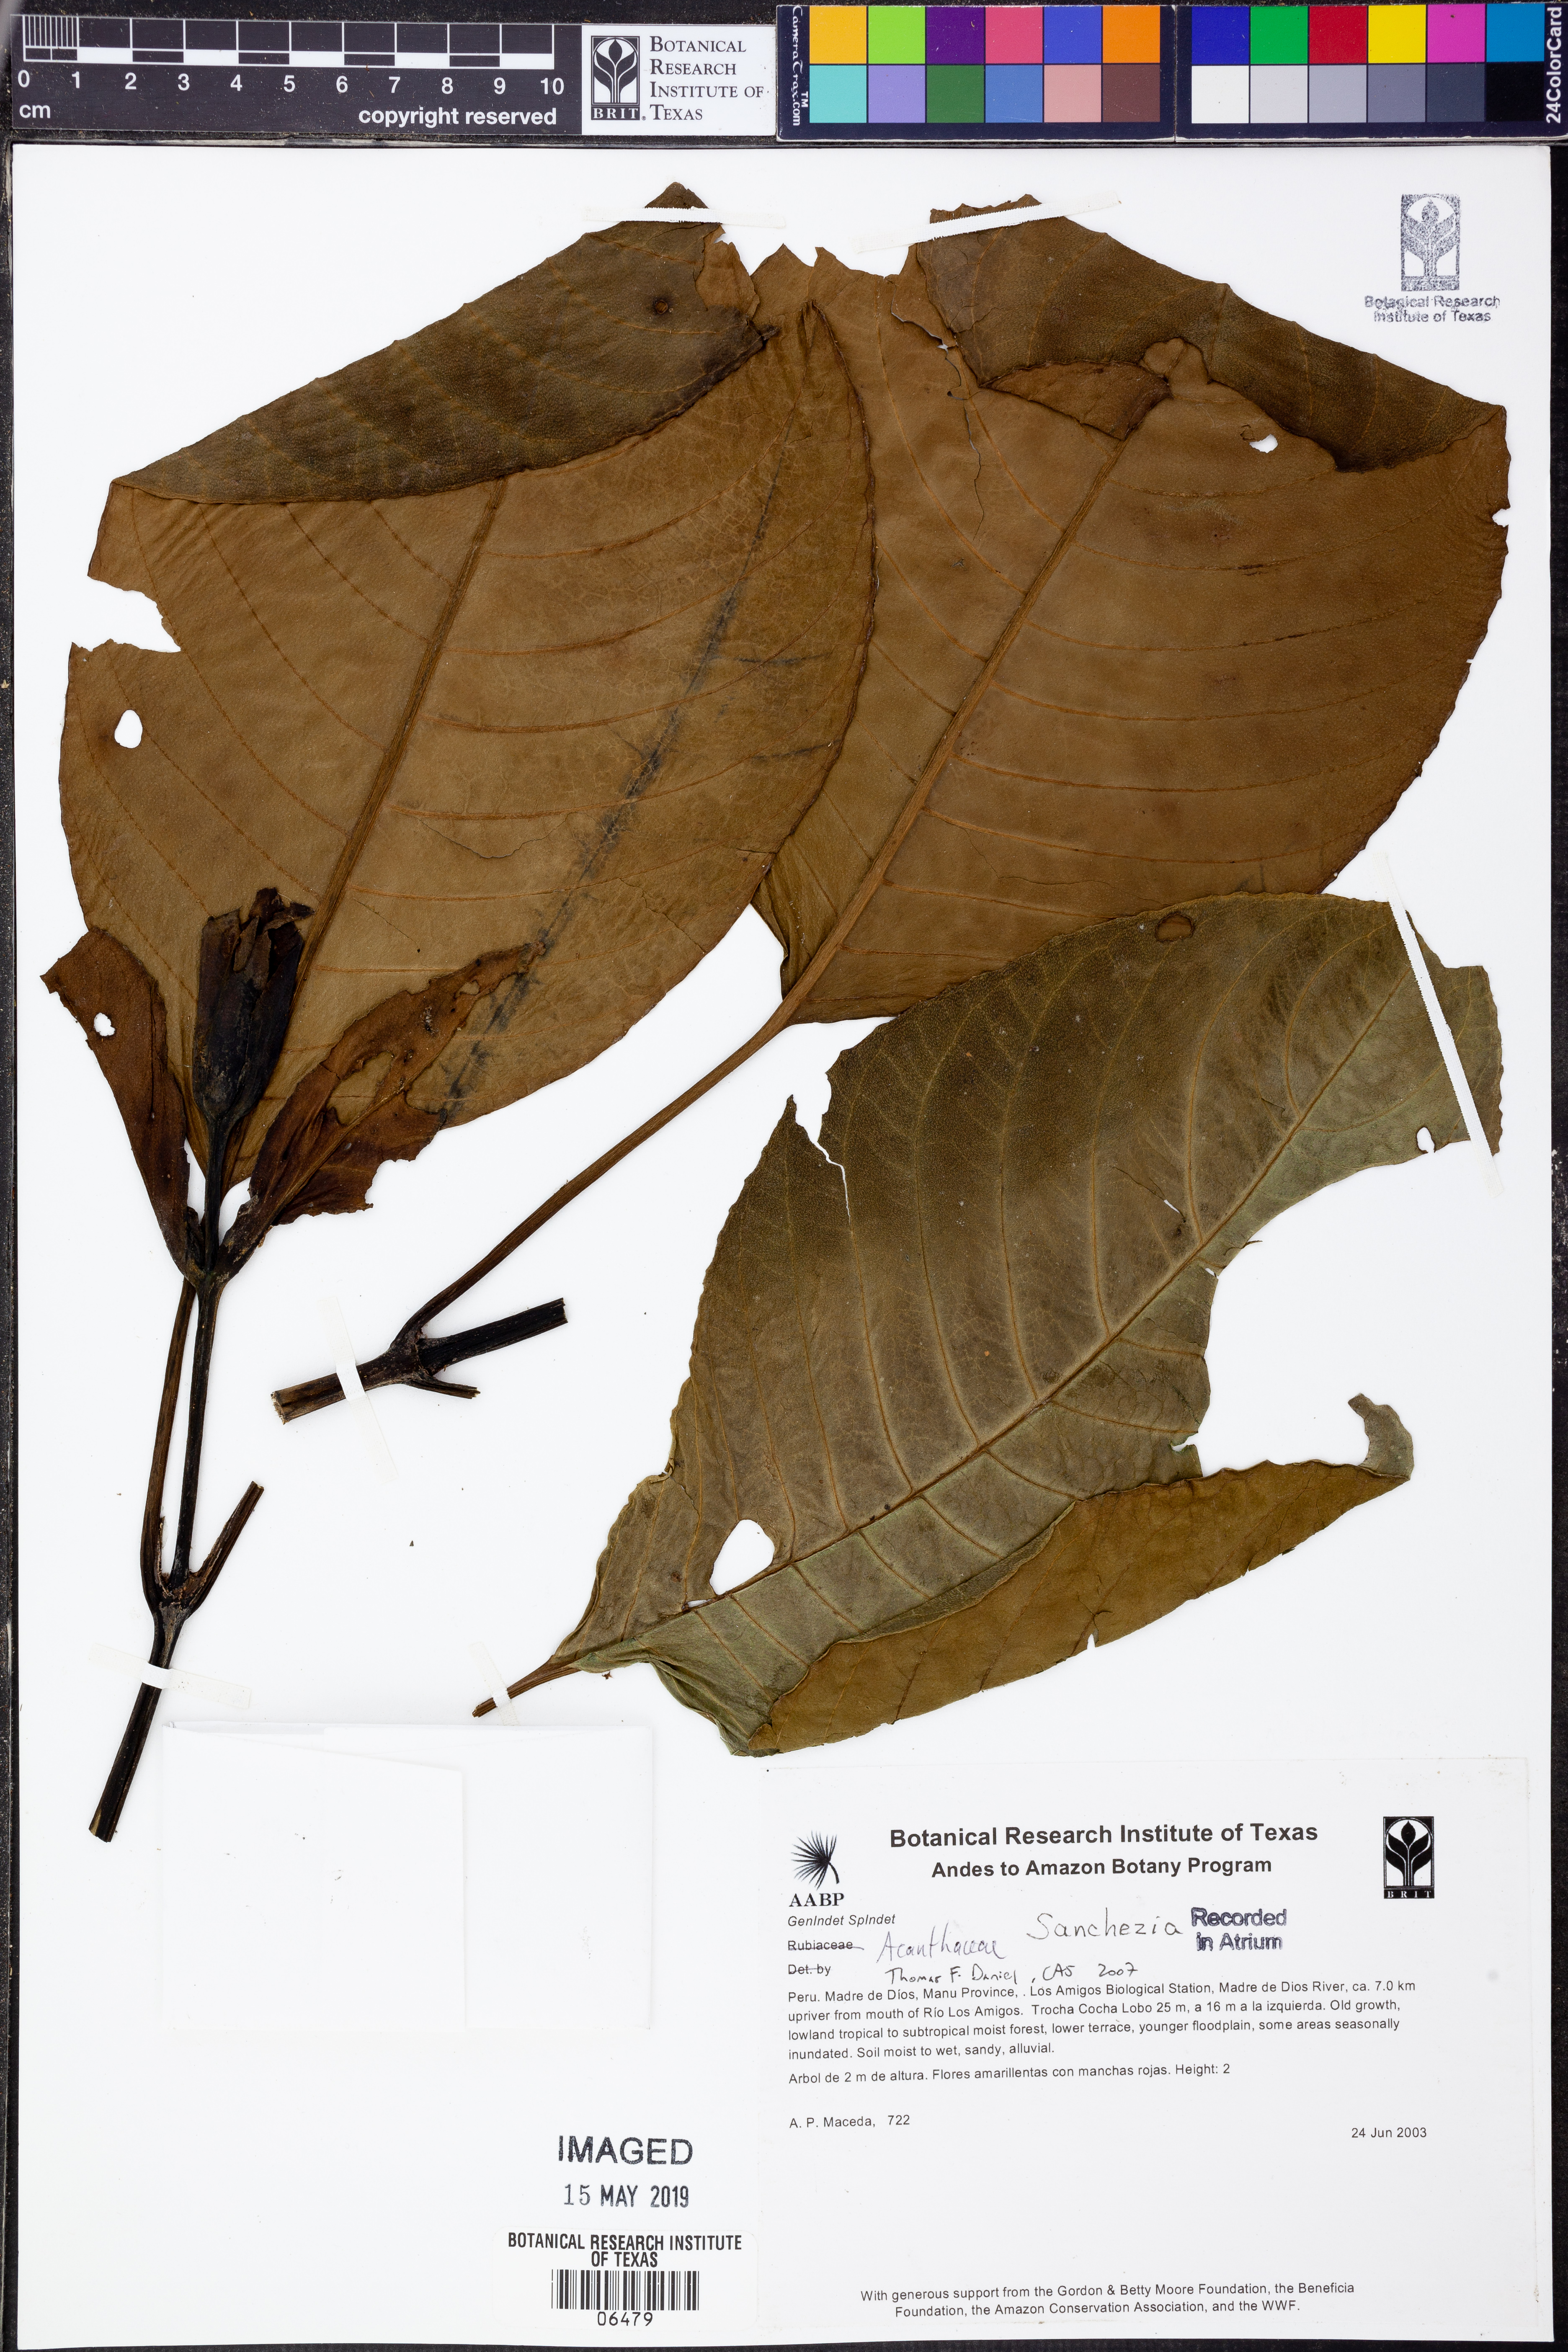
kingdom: Plantae
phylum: Tracheophyta
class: Magnoliopsida
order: Lamiales
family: Acanthaceae
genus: Sanchezia
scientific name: Sanchezia
